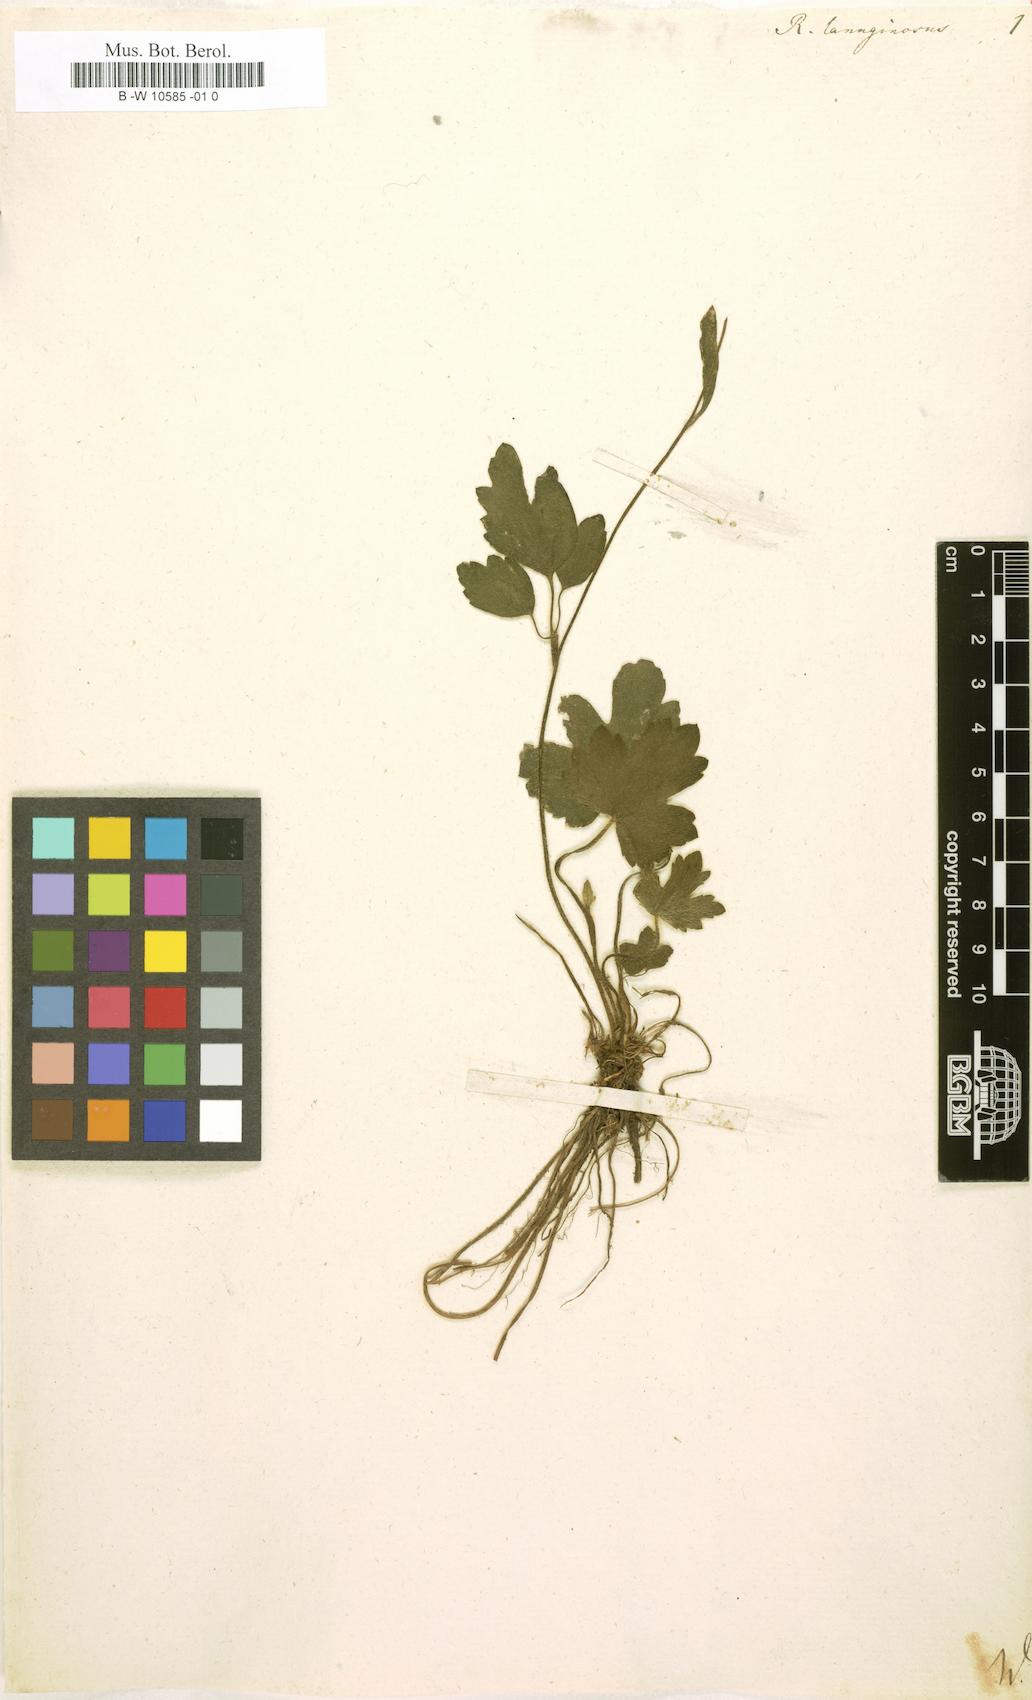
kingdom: Plantae
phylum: Tracheophyta
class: Magnoliopsida
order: Ranunculales
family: Ranunculaceae
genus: Ranunculus
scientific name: Ranunculus lanuginosus
